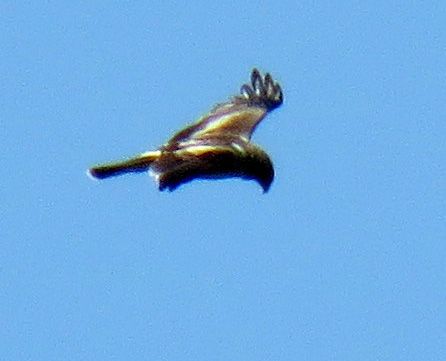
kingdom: Animalia
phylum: Chordata
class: Aves
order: Accipitriformes
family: Accipitridae
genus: Hieraaetus
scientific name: Hieraaetus pennatus
